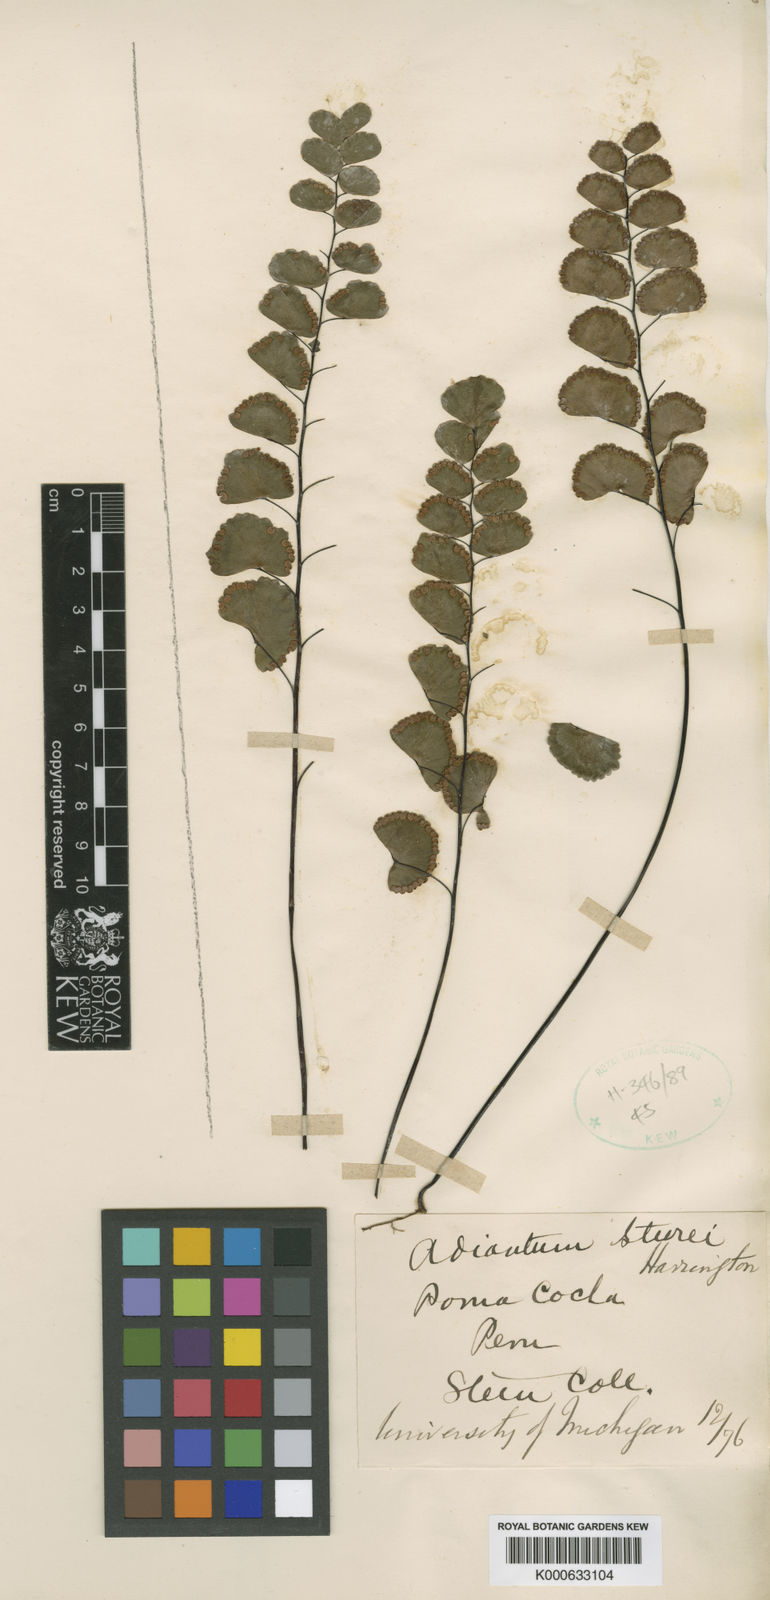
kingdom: Plantae
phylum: Tracheophyta
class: Polypodiopsida
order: Polypodiales
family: Pteridaceae
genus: Adiantum
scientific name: Adiantum ruizianum
